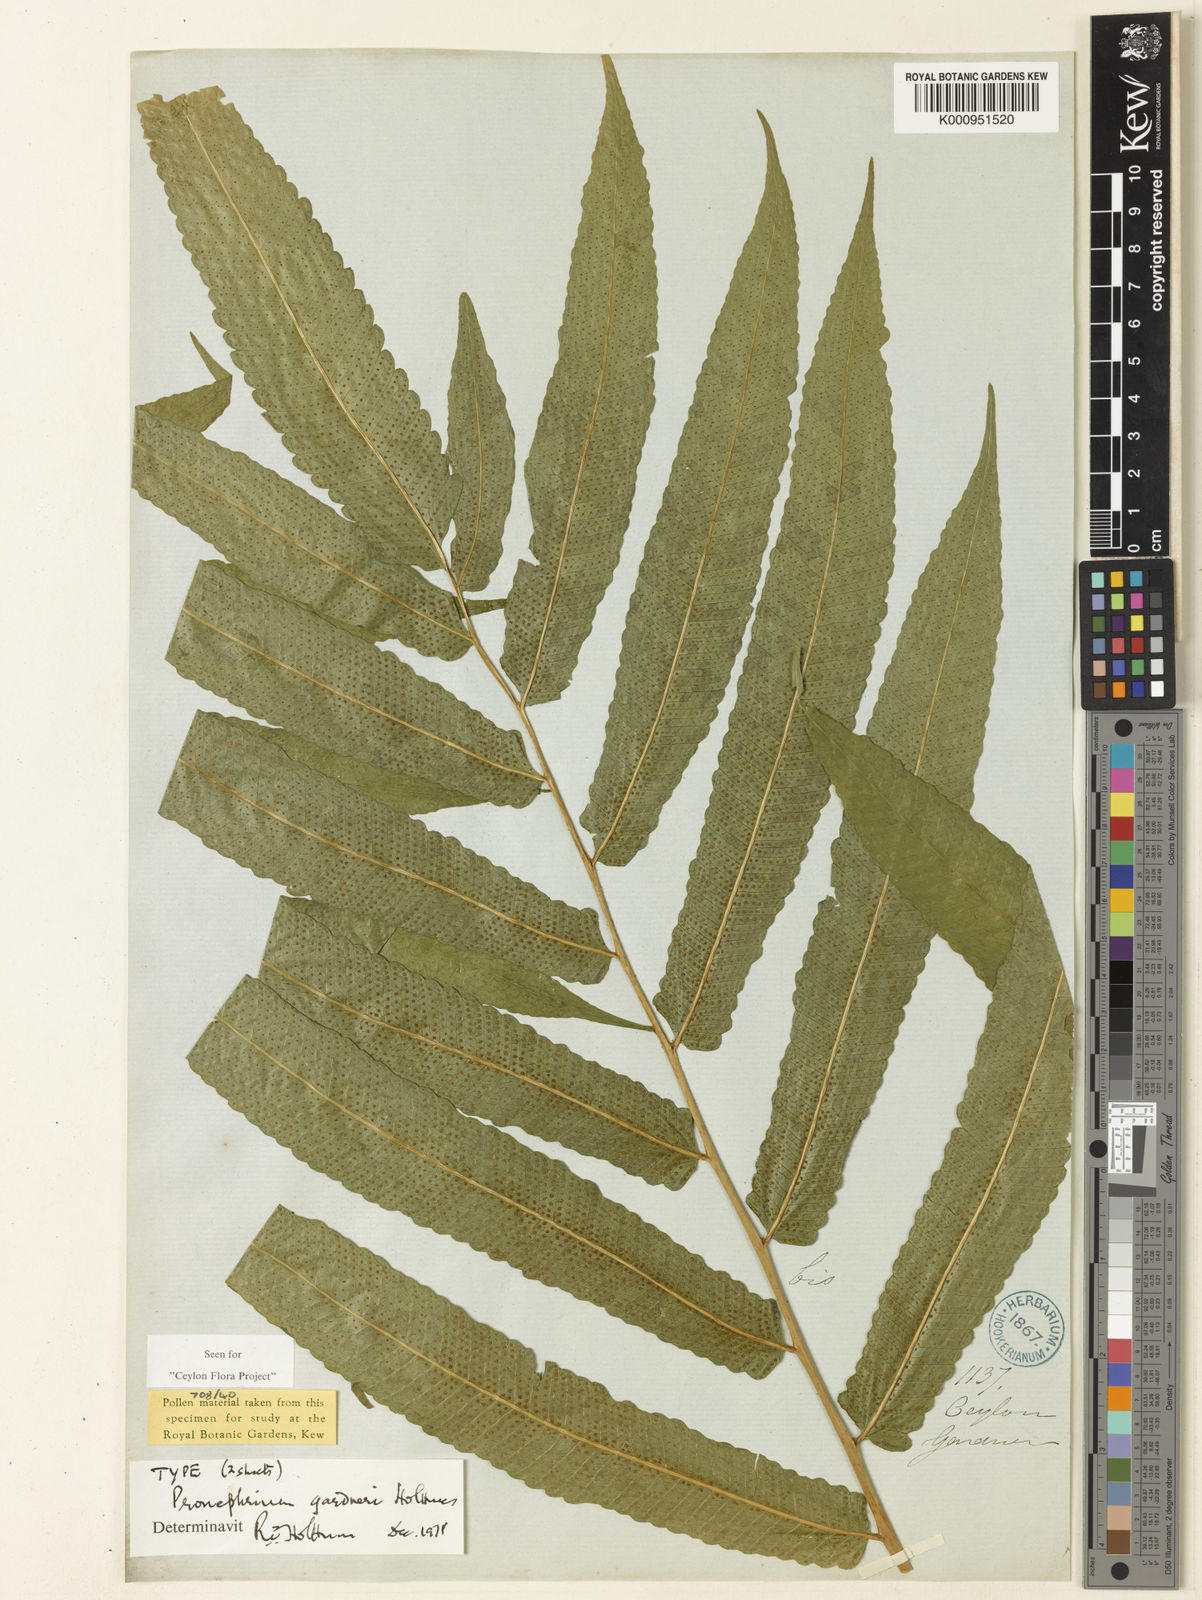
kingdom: Plantae
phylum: Tracheophyta
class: Polypodiopsida
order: Polypodiales
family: Thelypteridaceae
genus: Abacopteris
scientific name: Abacopteris gardneri
